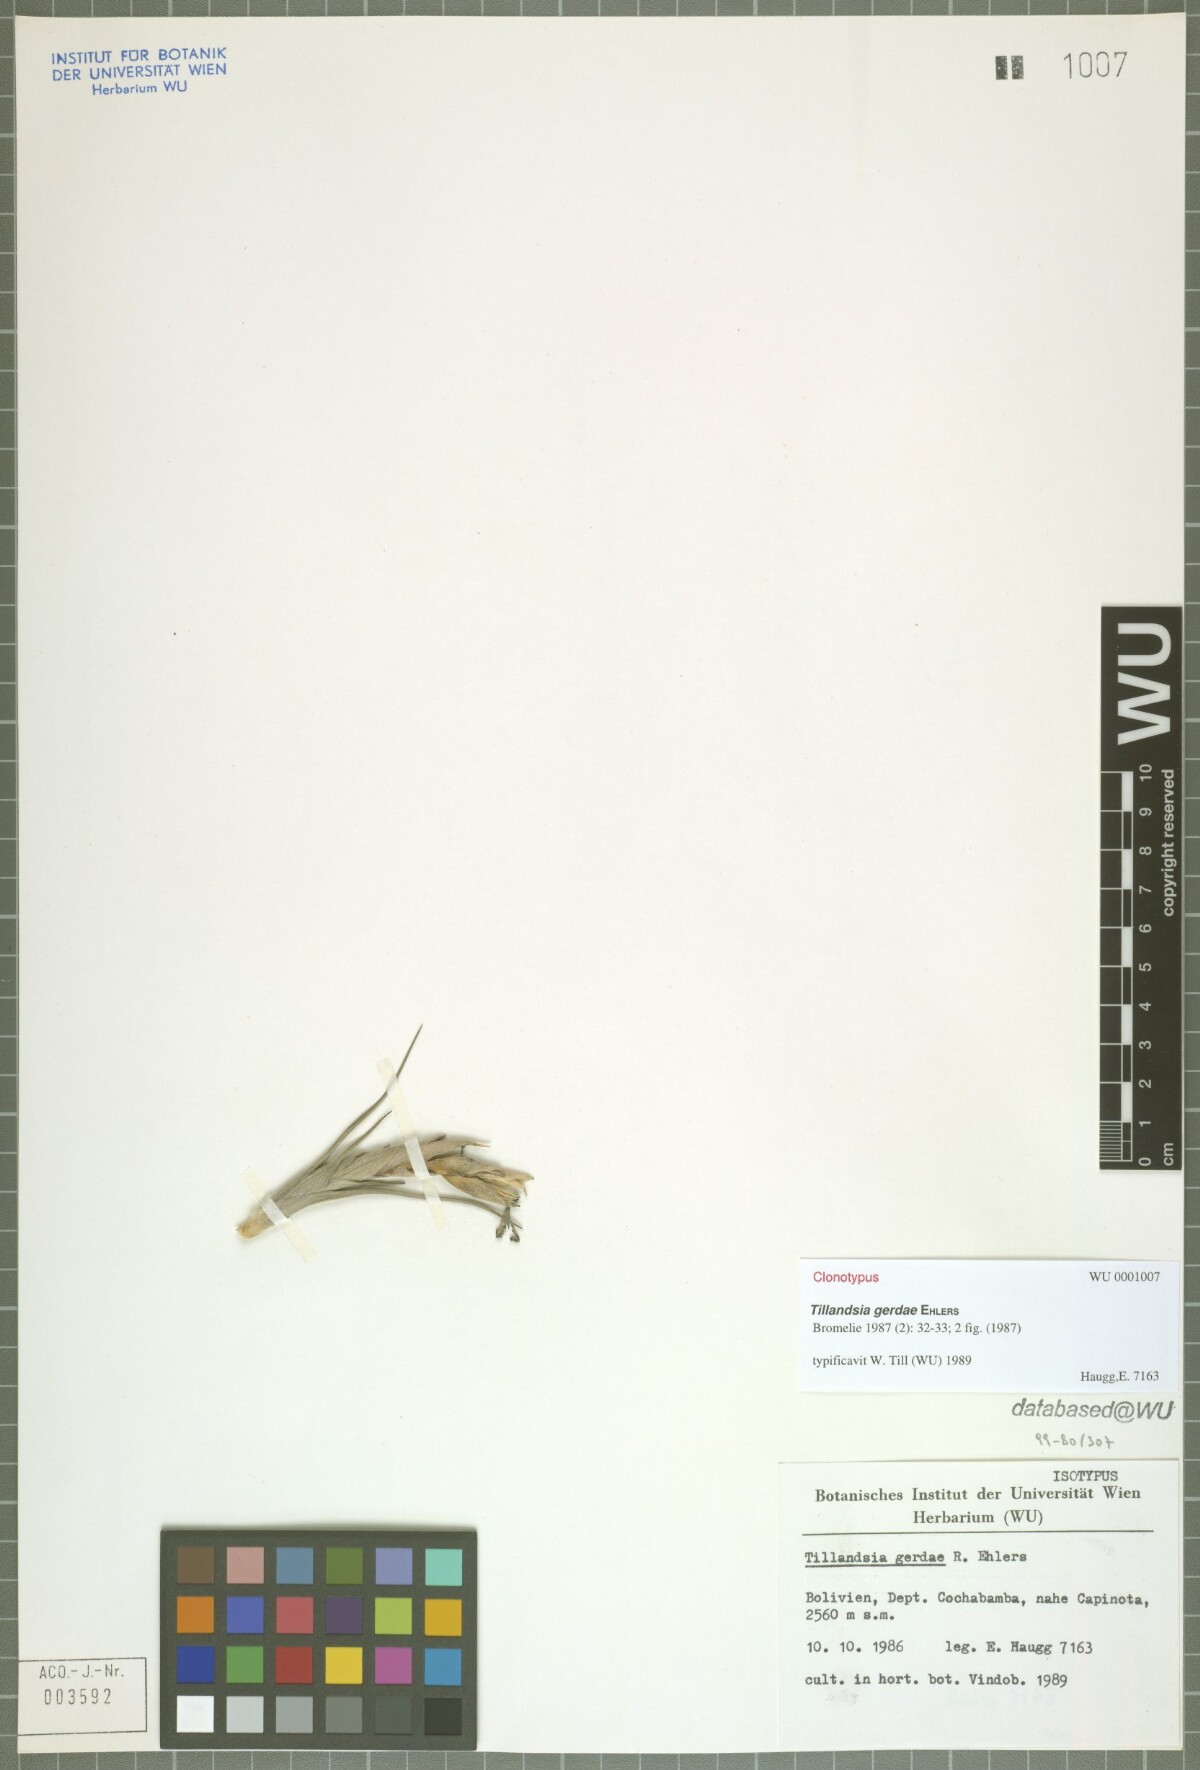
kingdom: Plantae
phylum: Tracheophyta
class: Liliopsida
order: Poales
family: Bromeliaceae
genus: Tillandsia
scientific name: Tillandsia gerdae
